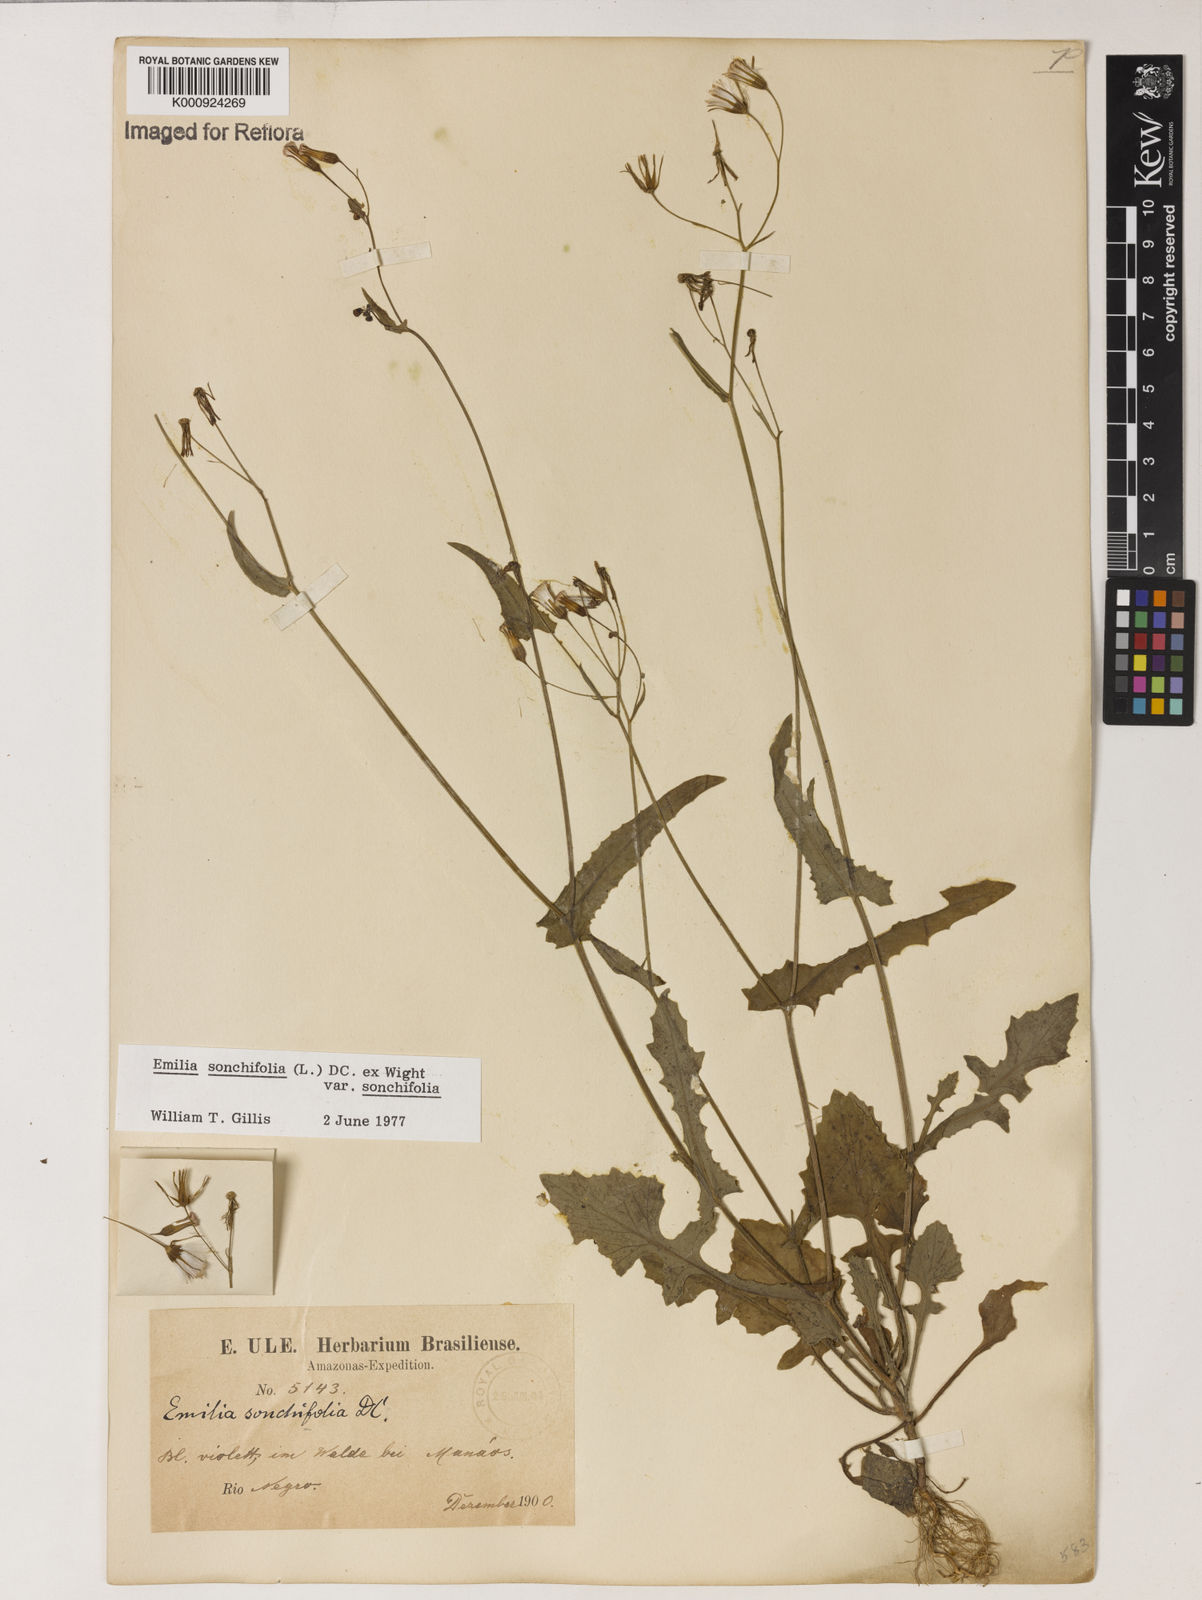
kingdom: Plantae
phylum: Tracheophyta
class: Magnoliopsida
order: Asterales
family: Asteraceae
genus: Emilia
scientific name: Emilia
